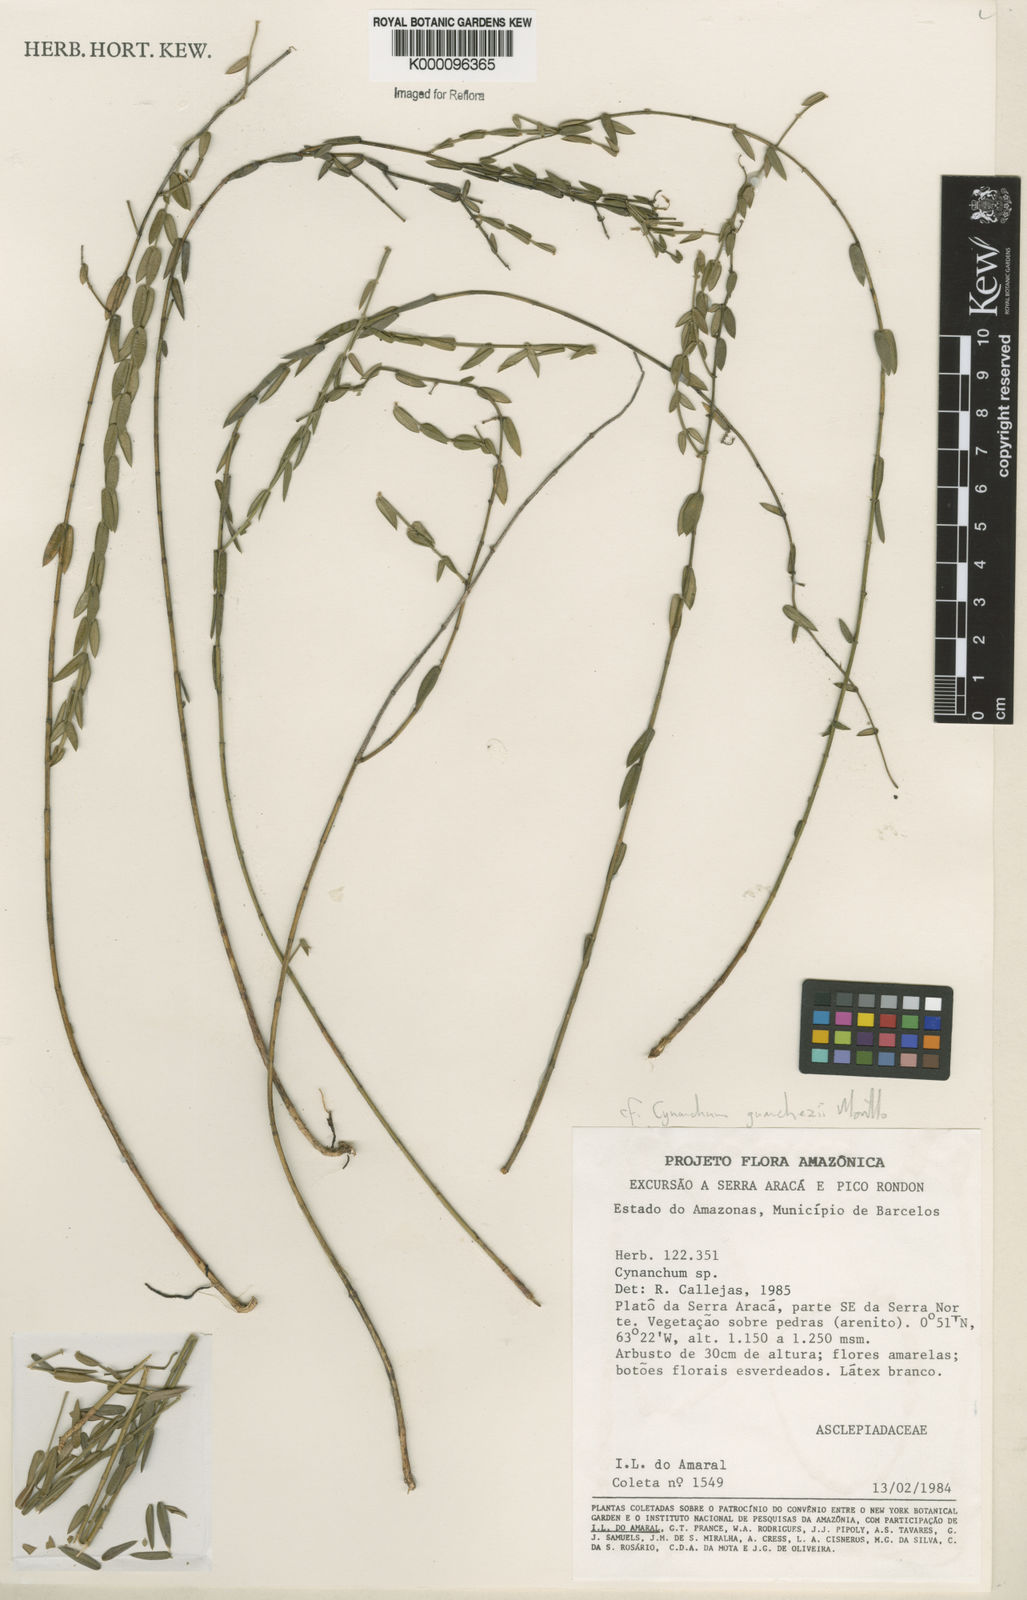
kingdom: Plantae
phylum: Tracheophyta
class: Magnoliopsida
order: Gentianales
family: Apocynaceae
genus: Tassadia
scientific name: Tassadia guanchezii
